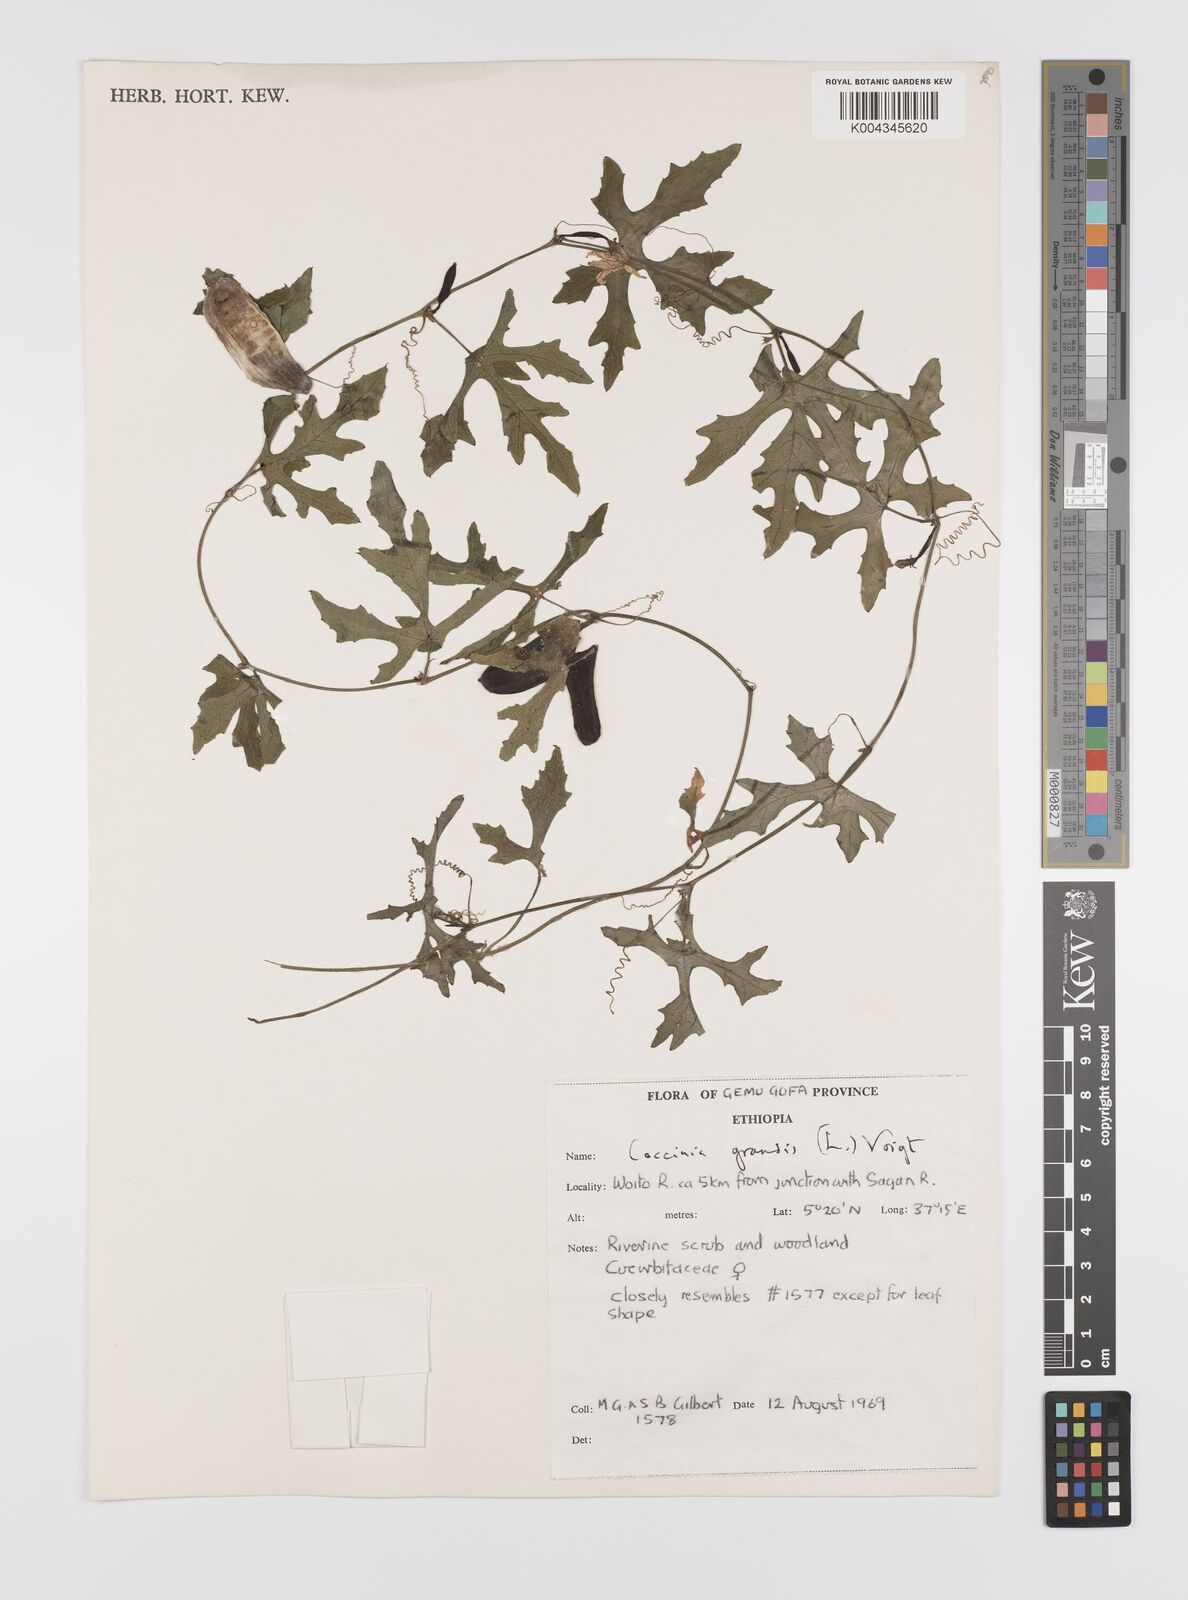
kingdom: Plantae
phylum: Tracheophyta
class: Magnoliopsida
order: Cucurbitales
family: Cucurbitaceae
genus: Coccinia
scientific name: Coccinia grandis
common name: Ivy gourd
